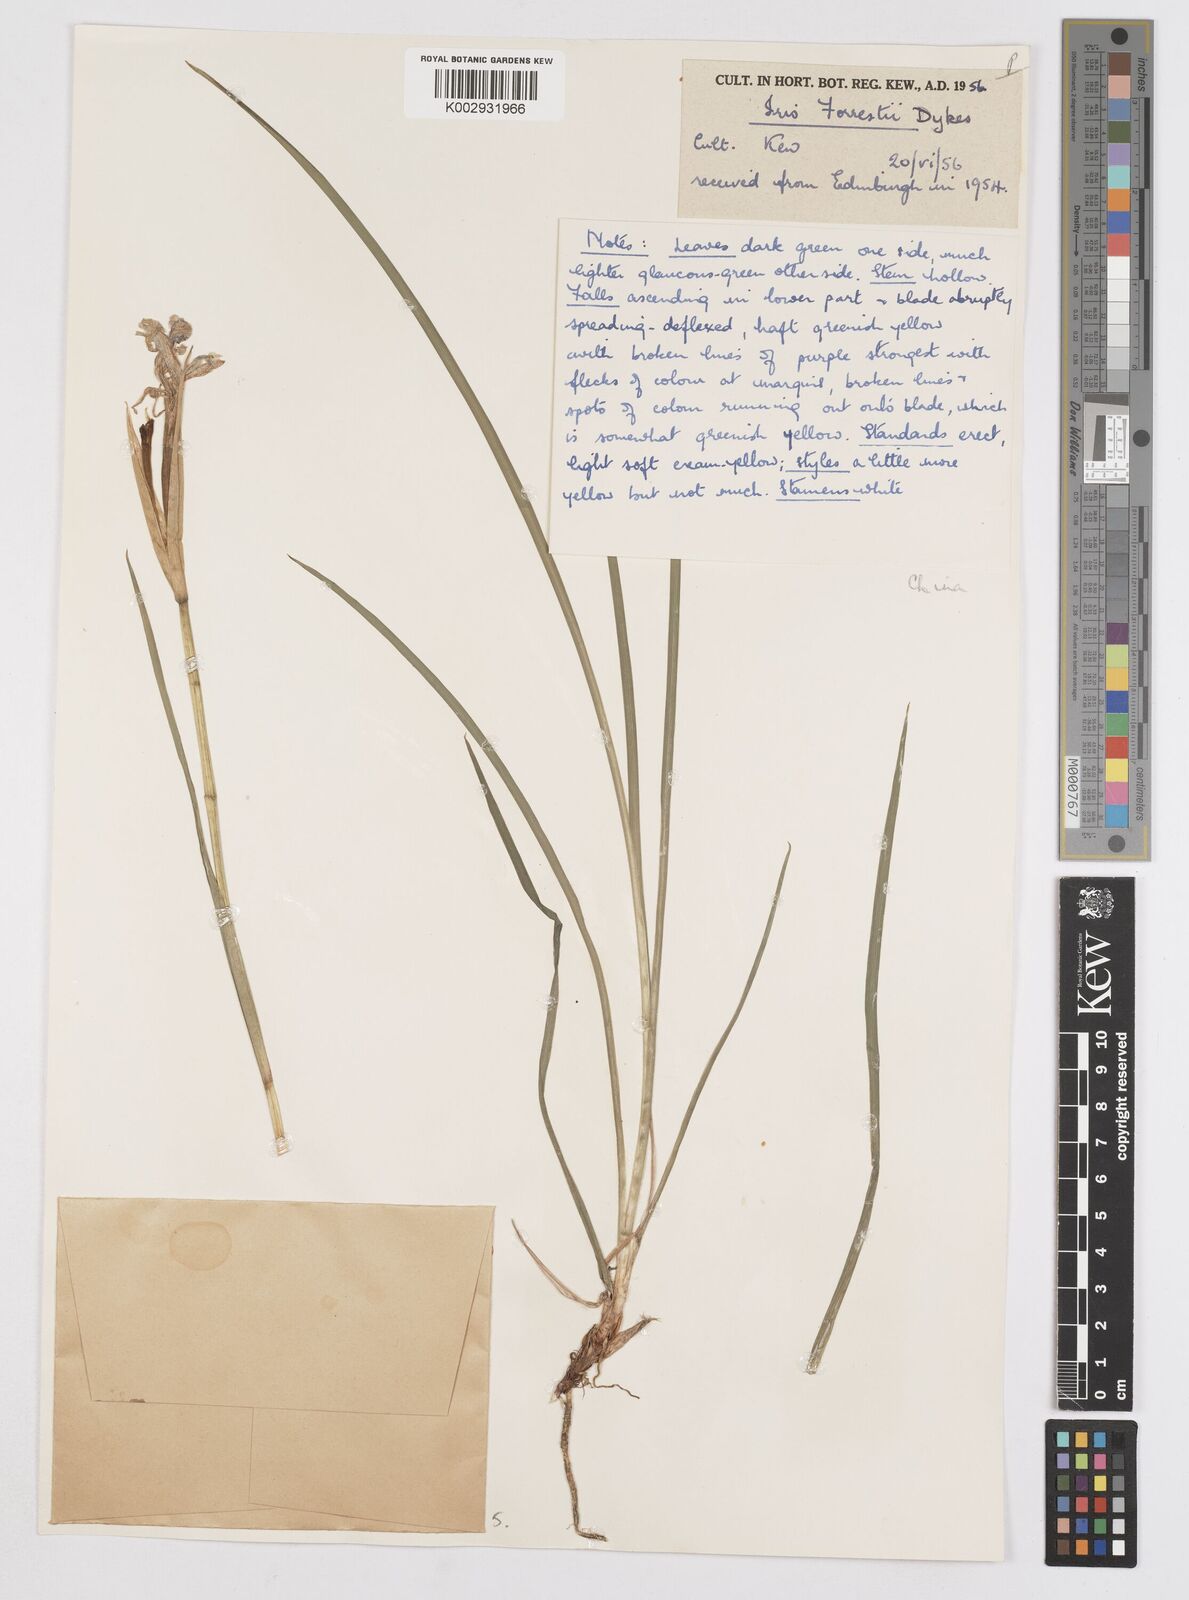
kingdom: Plantae
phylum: Tracheophyta
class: Liliopsida
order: Asparagales
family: Iridaceae
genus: Iris
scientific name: Iris forrestii
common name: Yunnan iris
